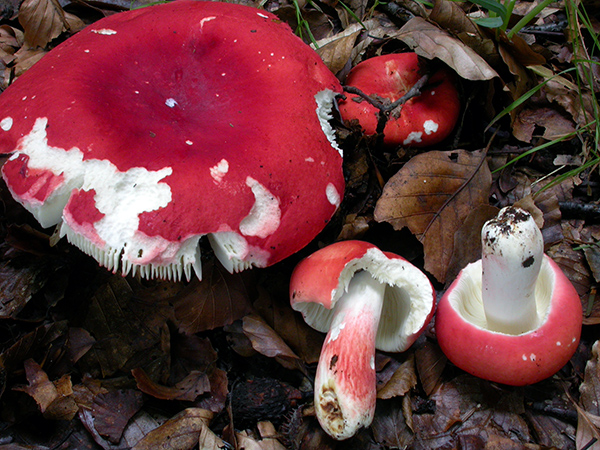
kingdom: Fungi
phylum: Basidiomycota
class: Agaricomycetes
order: Russulales
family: Russulaceae
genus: Russula
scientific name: Russula rosea
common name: fastkødet skørhat
